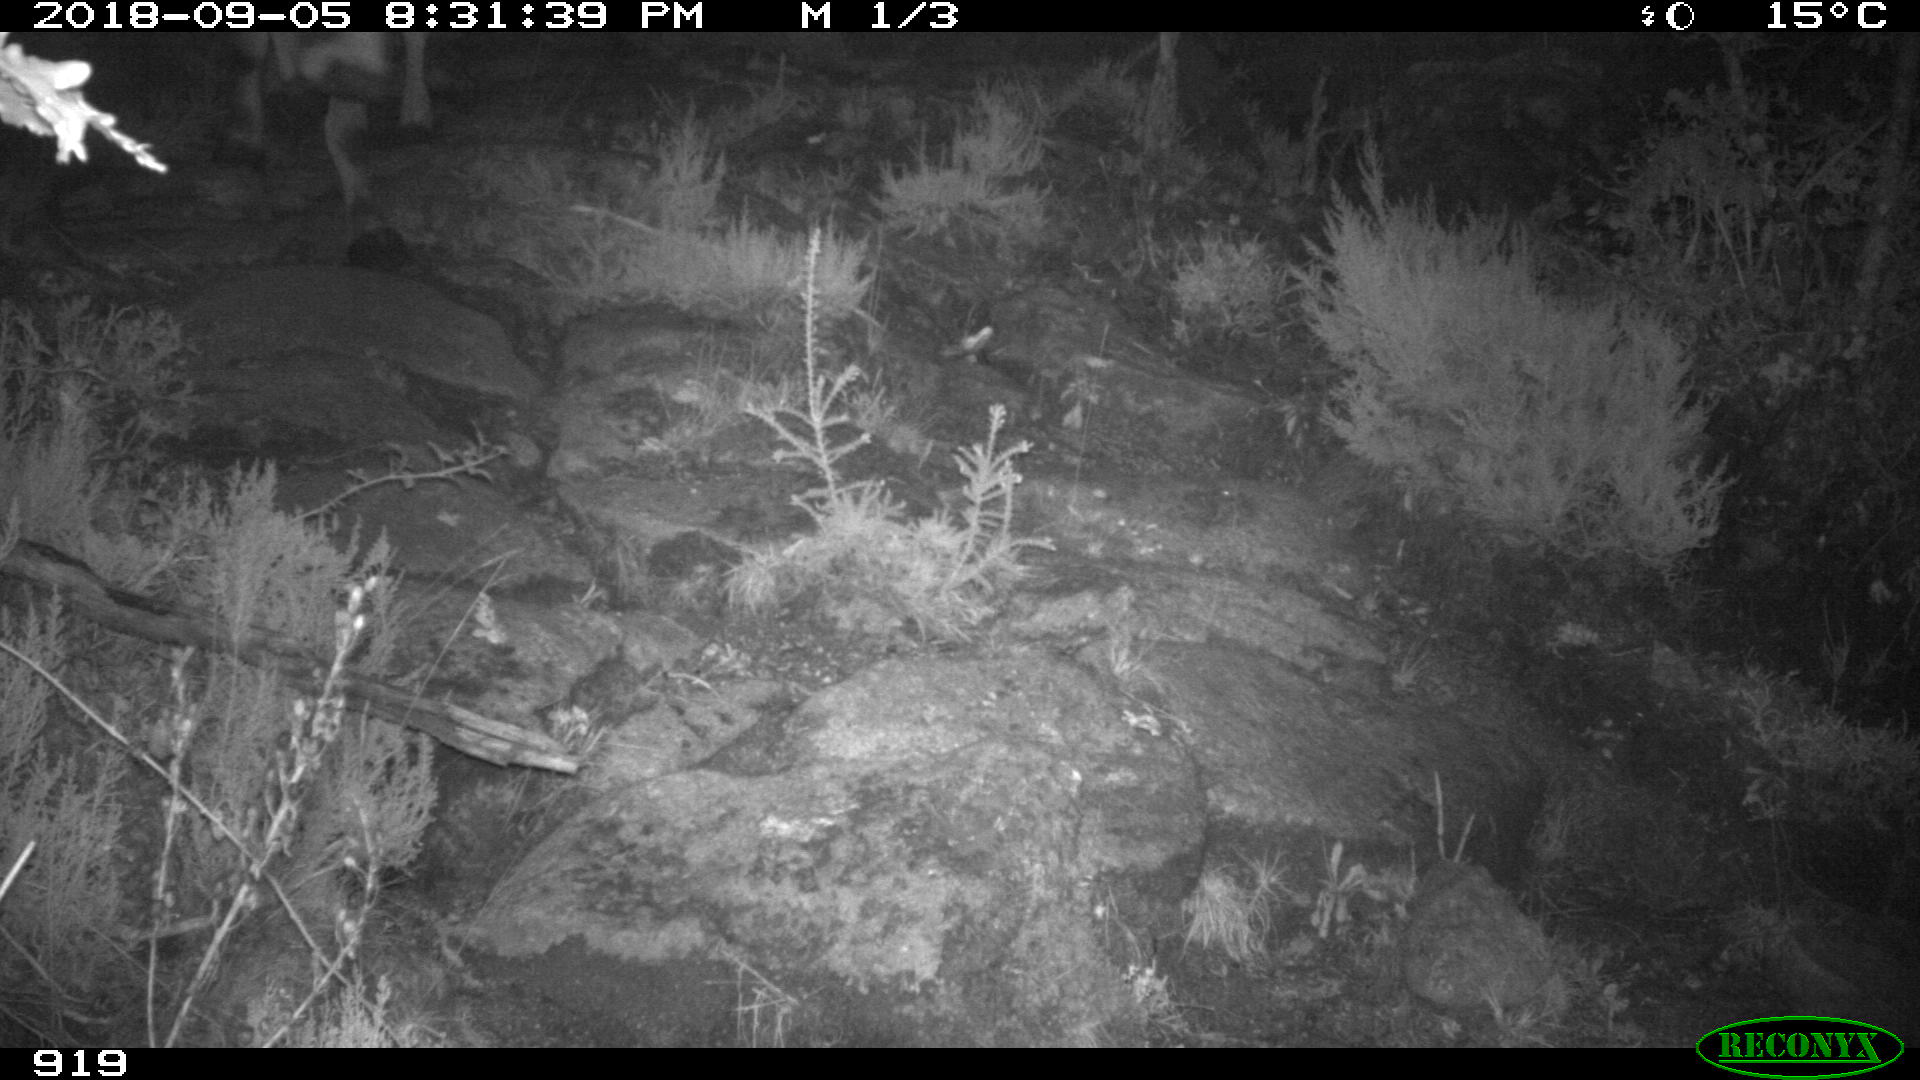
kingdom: Animalia
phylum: Chordata
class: Mammalia
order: Artiodactyla
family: Bovidae
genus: Bos
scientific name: Bos taurus
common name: Domesticated cattle
